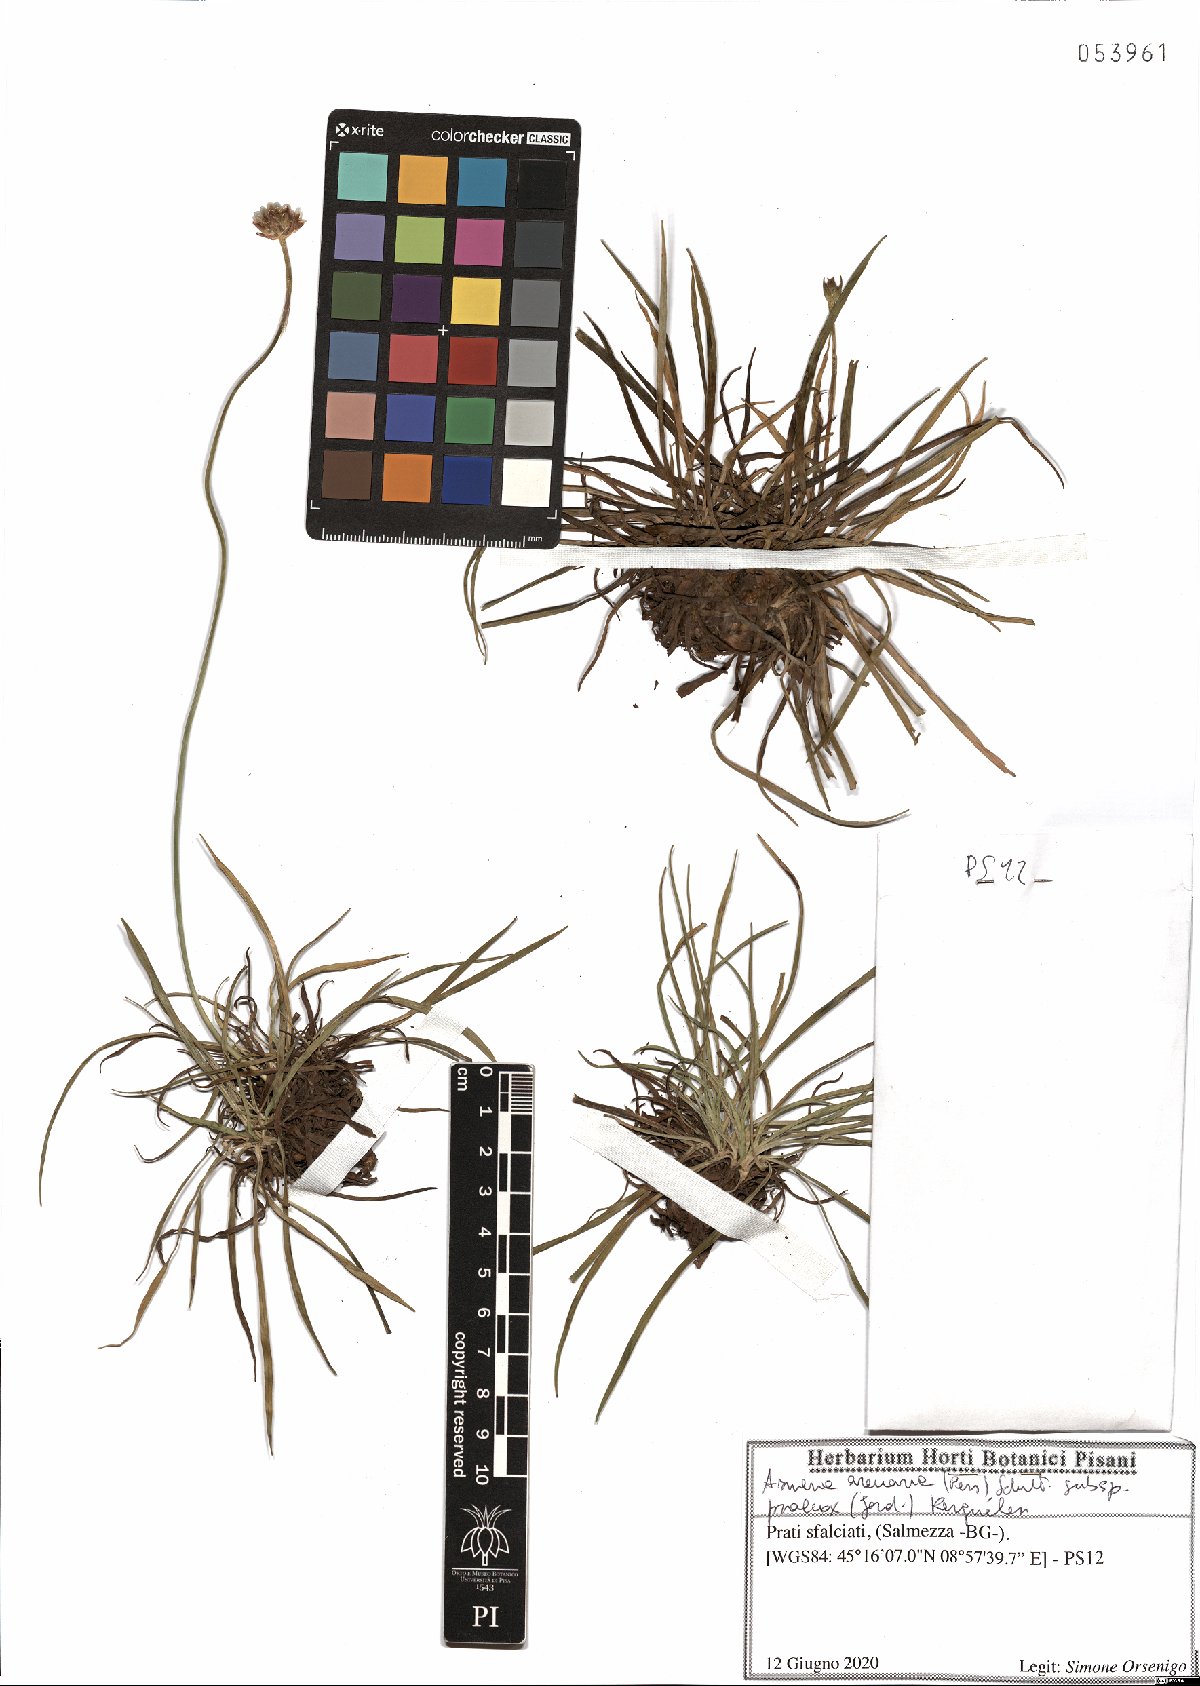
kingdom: Plantae
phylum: Tracheophyta
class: Magnoliopsida
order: Caryophyllales
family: Plumbaginaceae
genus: Armeria
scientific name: Armeria arenaria
